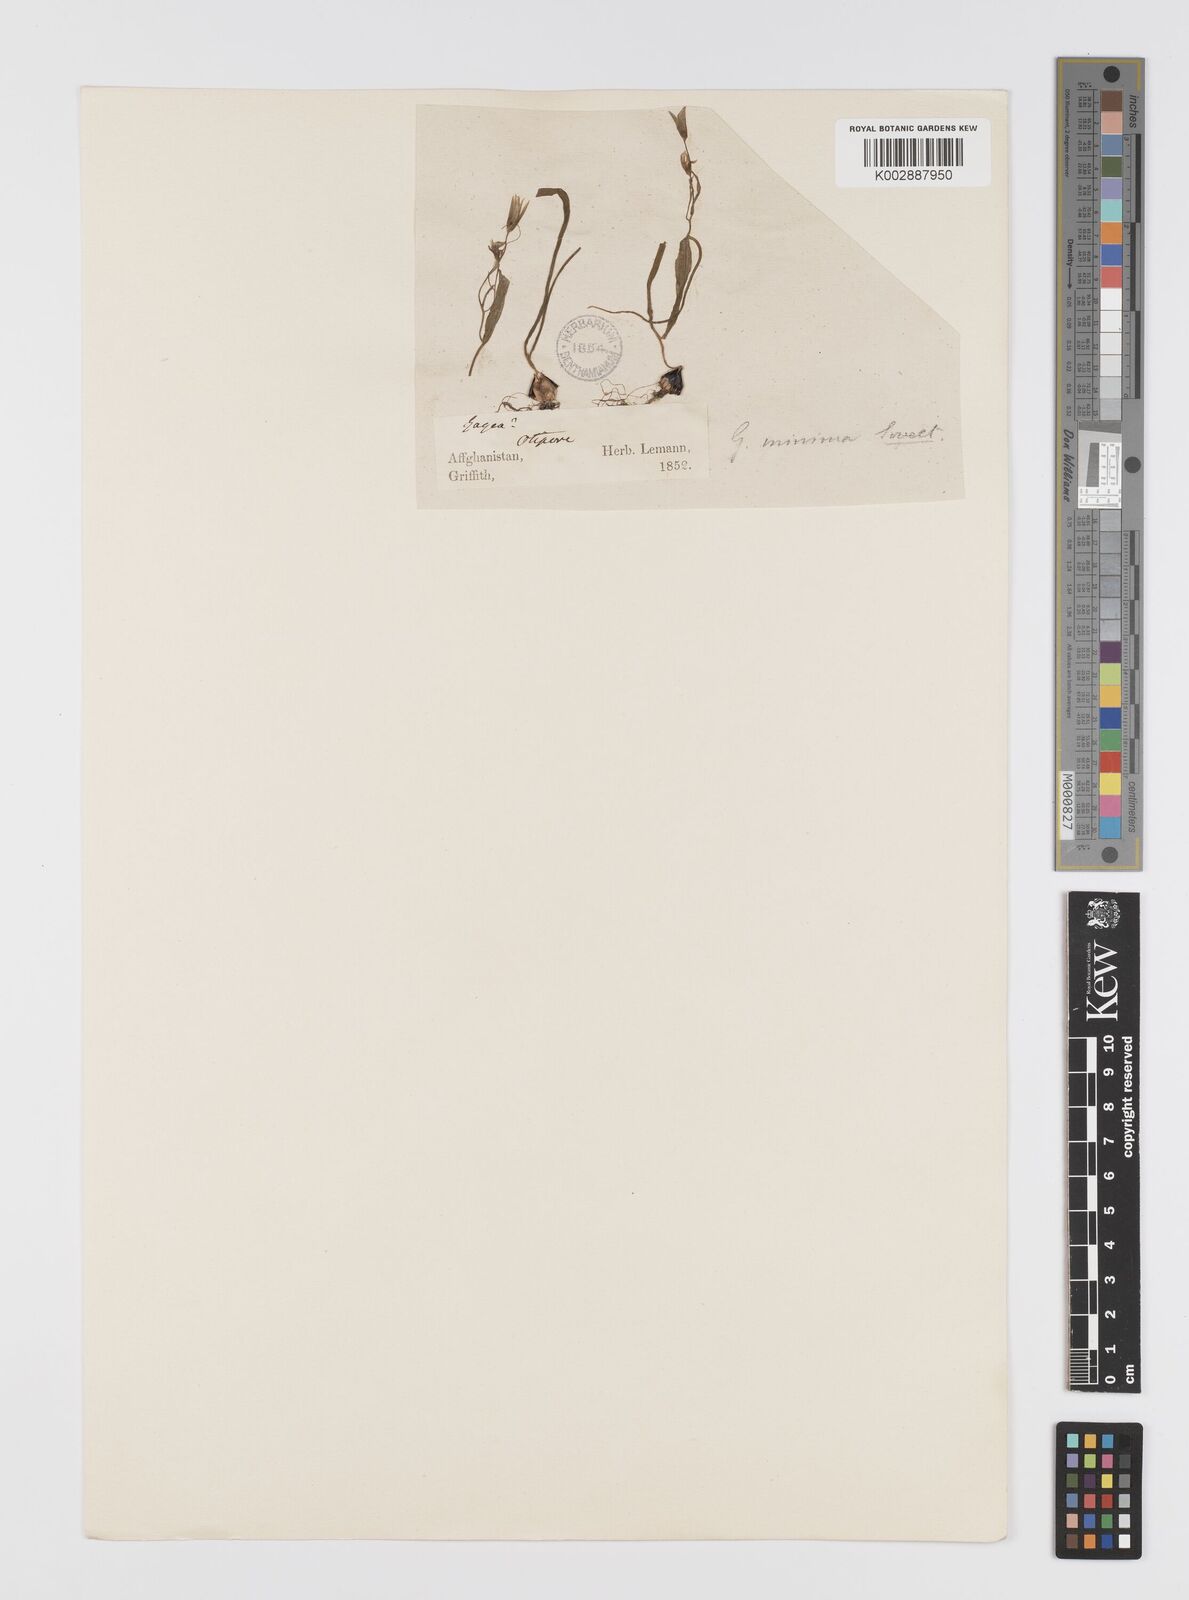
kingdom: Plantae
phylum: Tracheophyta
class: Liliopsida
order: Liliales
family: Liliaceae
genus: Gagea
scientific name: Gagea filiformis
